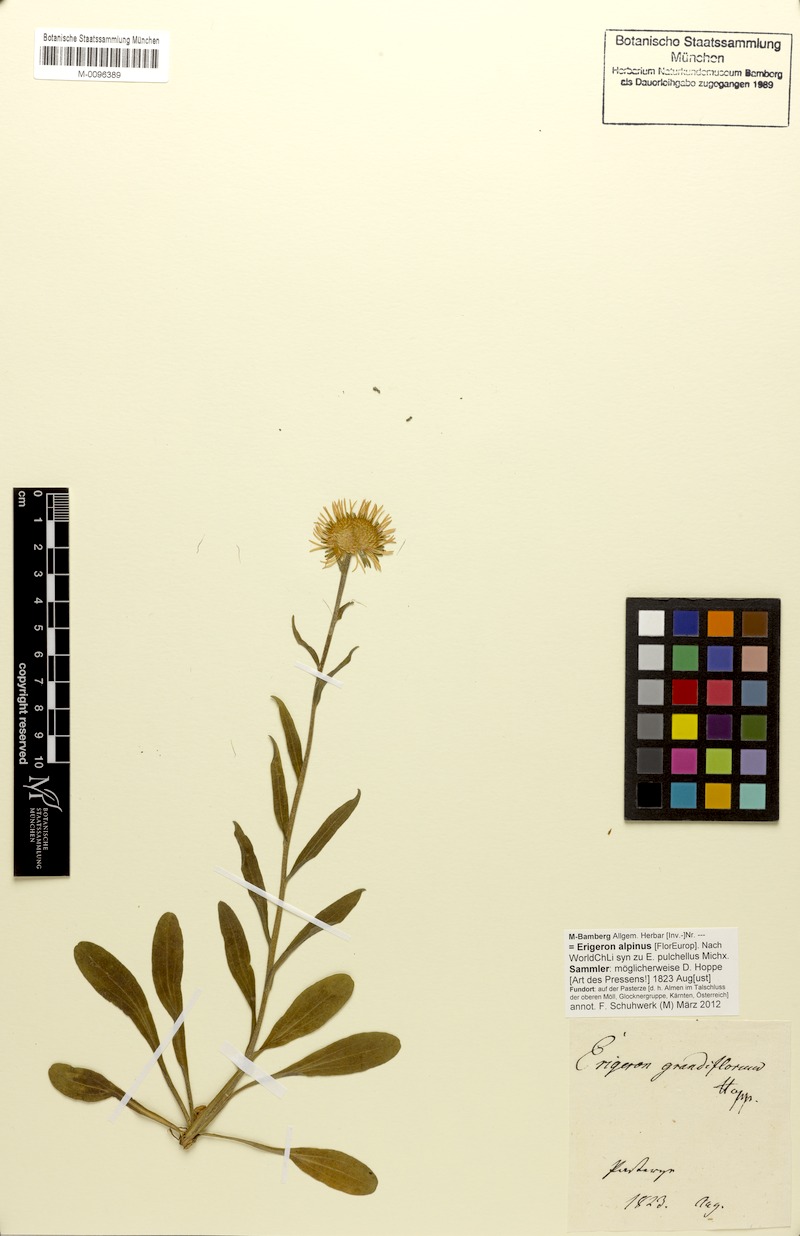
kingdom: Plantae
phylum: Tracheophyta
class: Magnoliopsida
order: Asterales
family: Asteraceae
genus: Erigeron
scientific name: Erigeron alpinus
